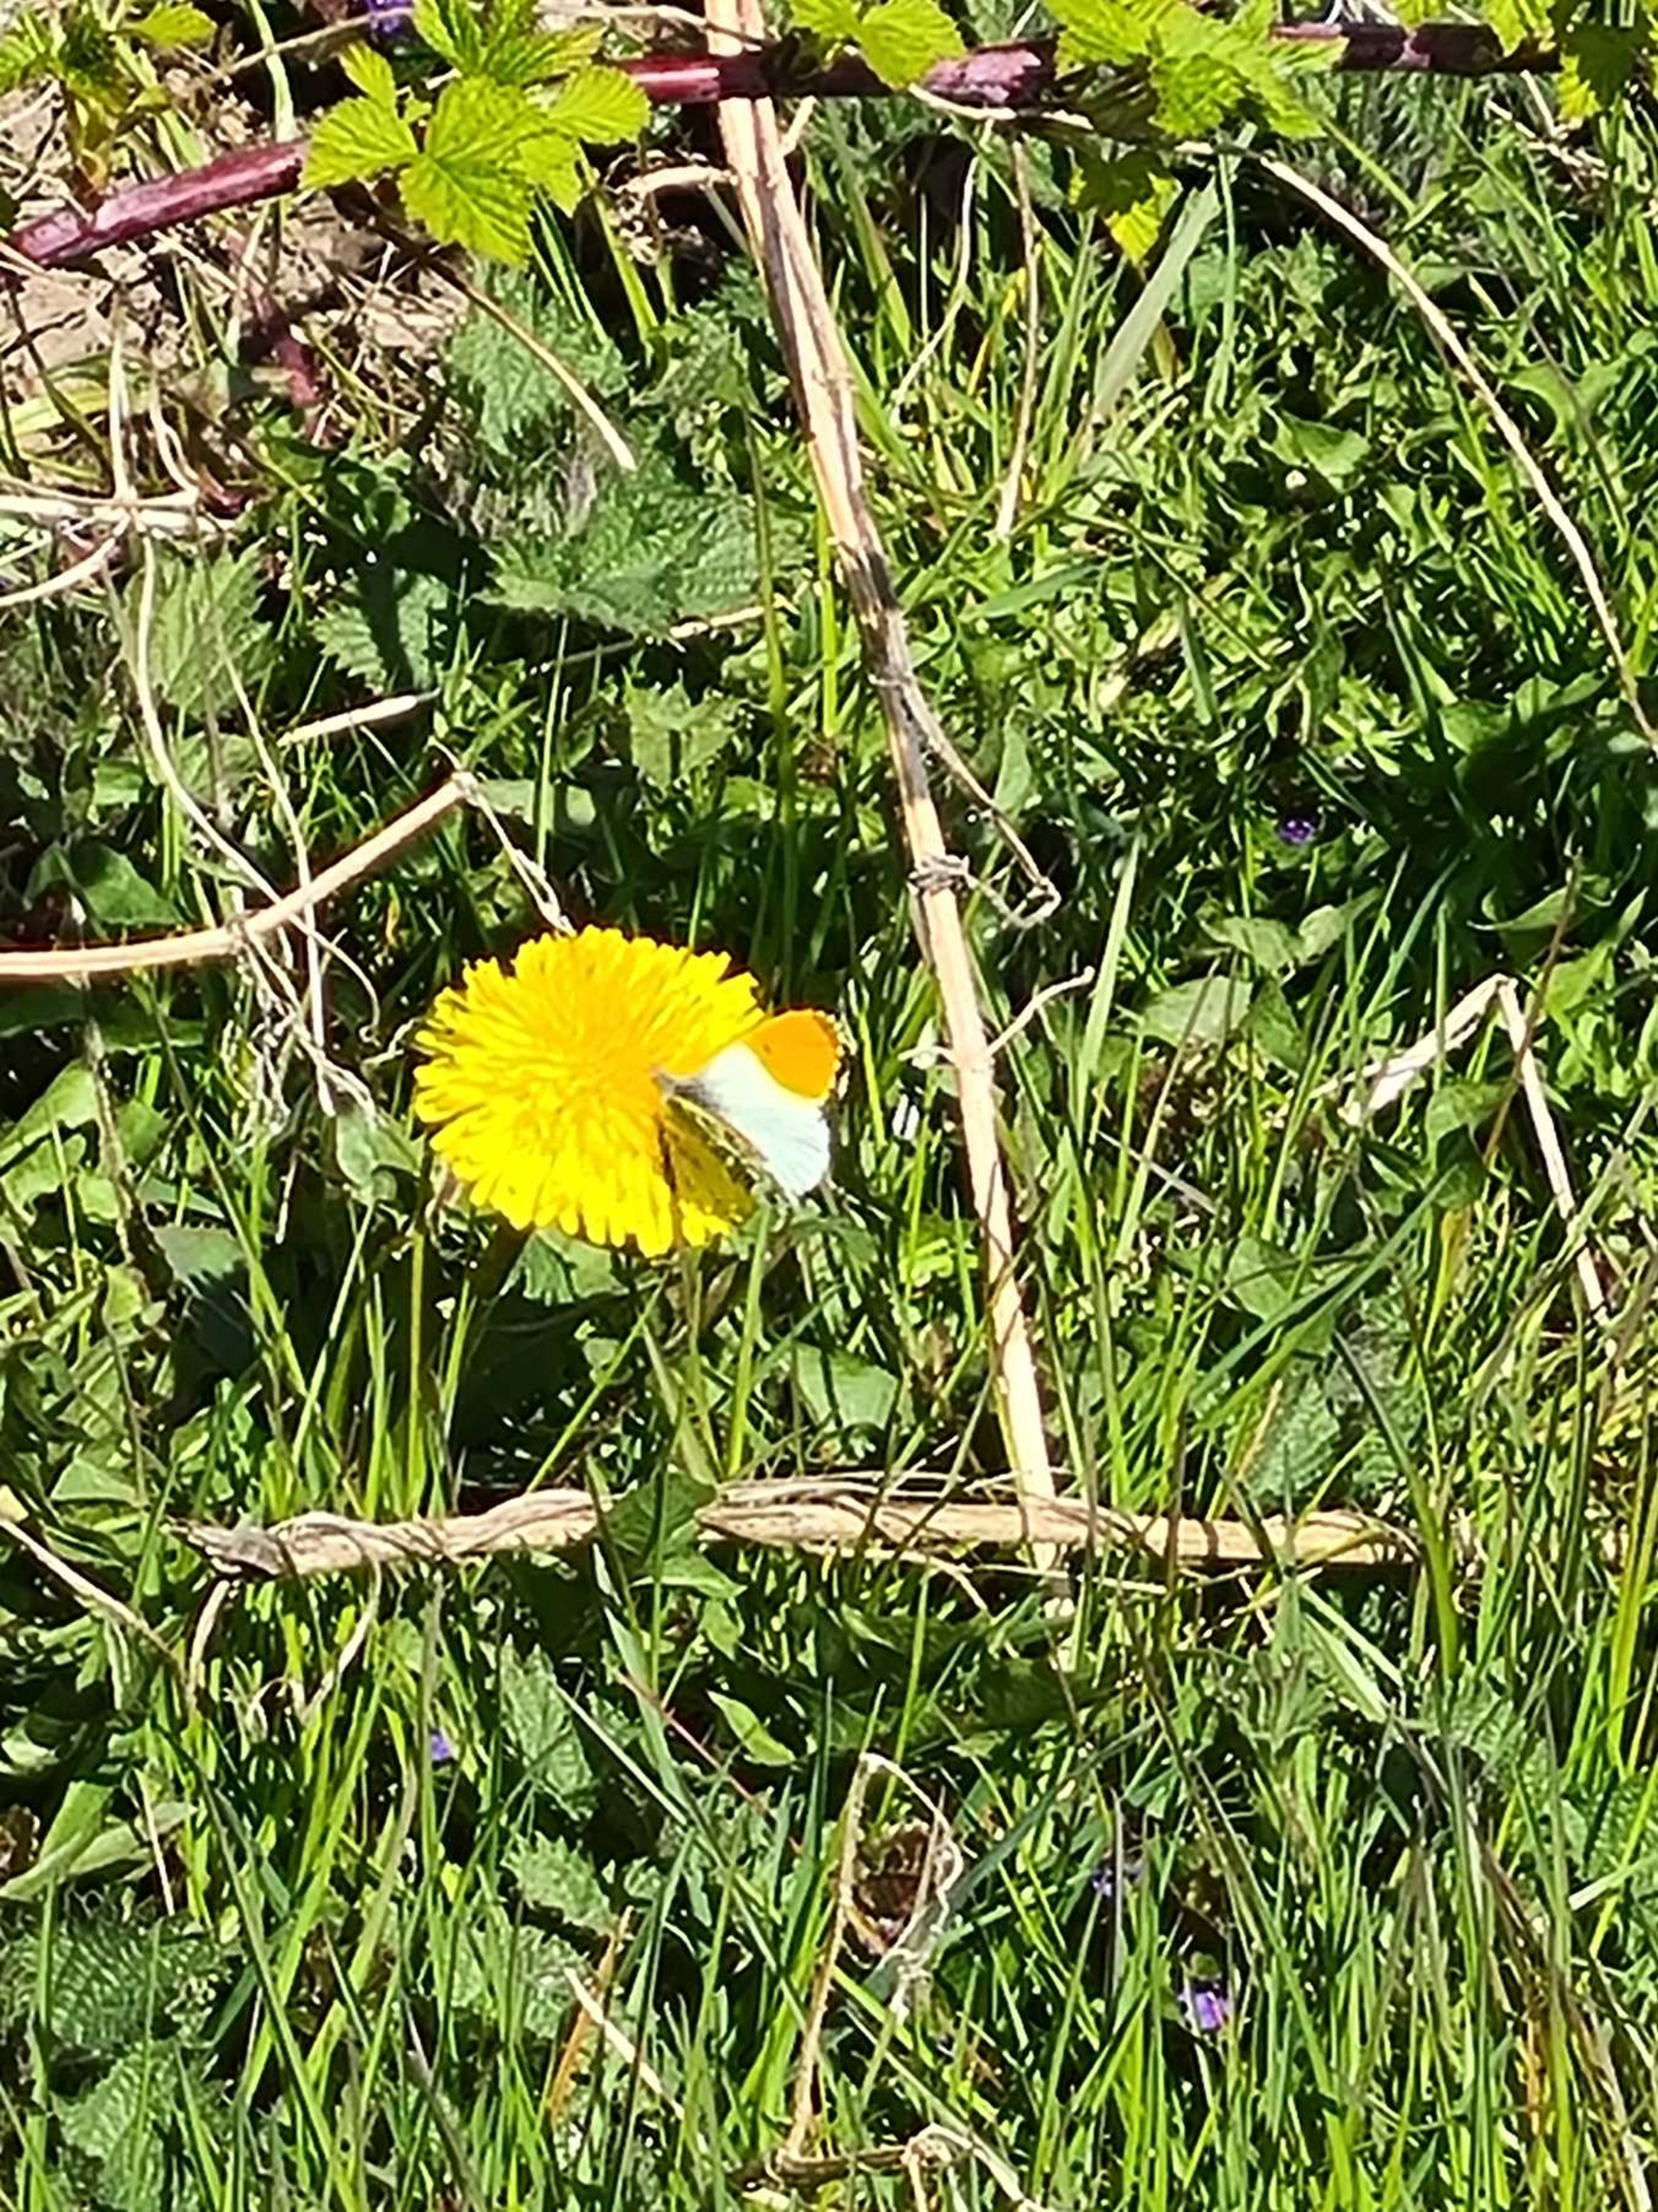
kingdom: Animalia
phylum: Arthropoda
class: Insecta
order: Lepidoptera
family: Pieridae
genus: Anthocharis
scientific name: Anthocharis cardamines
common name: Aurora
